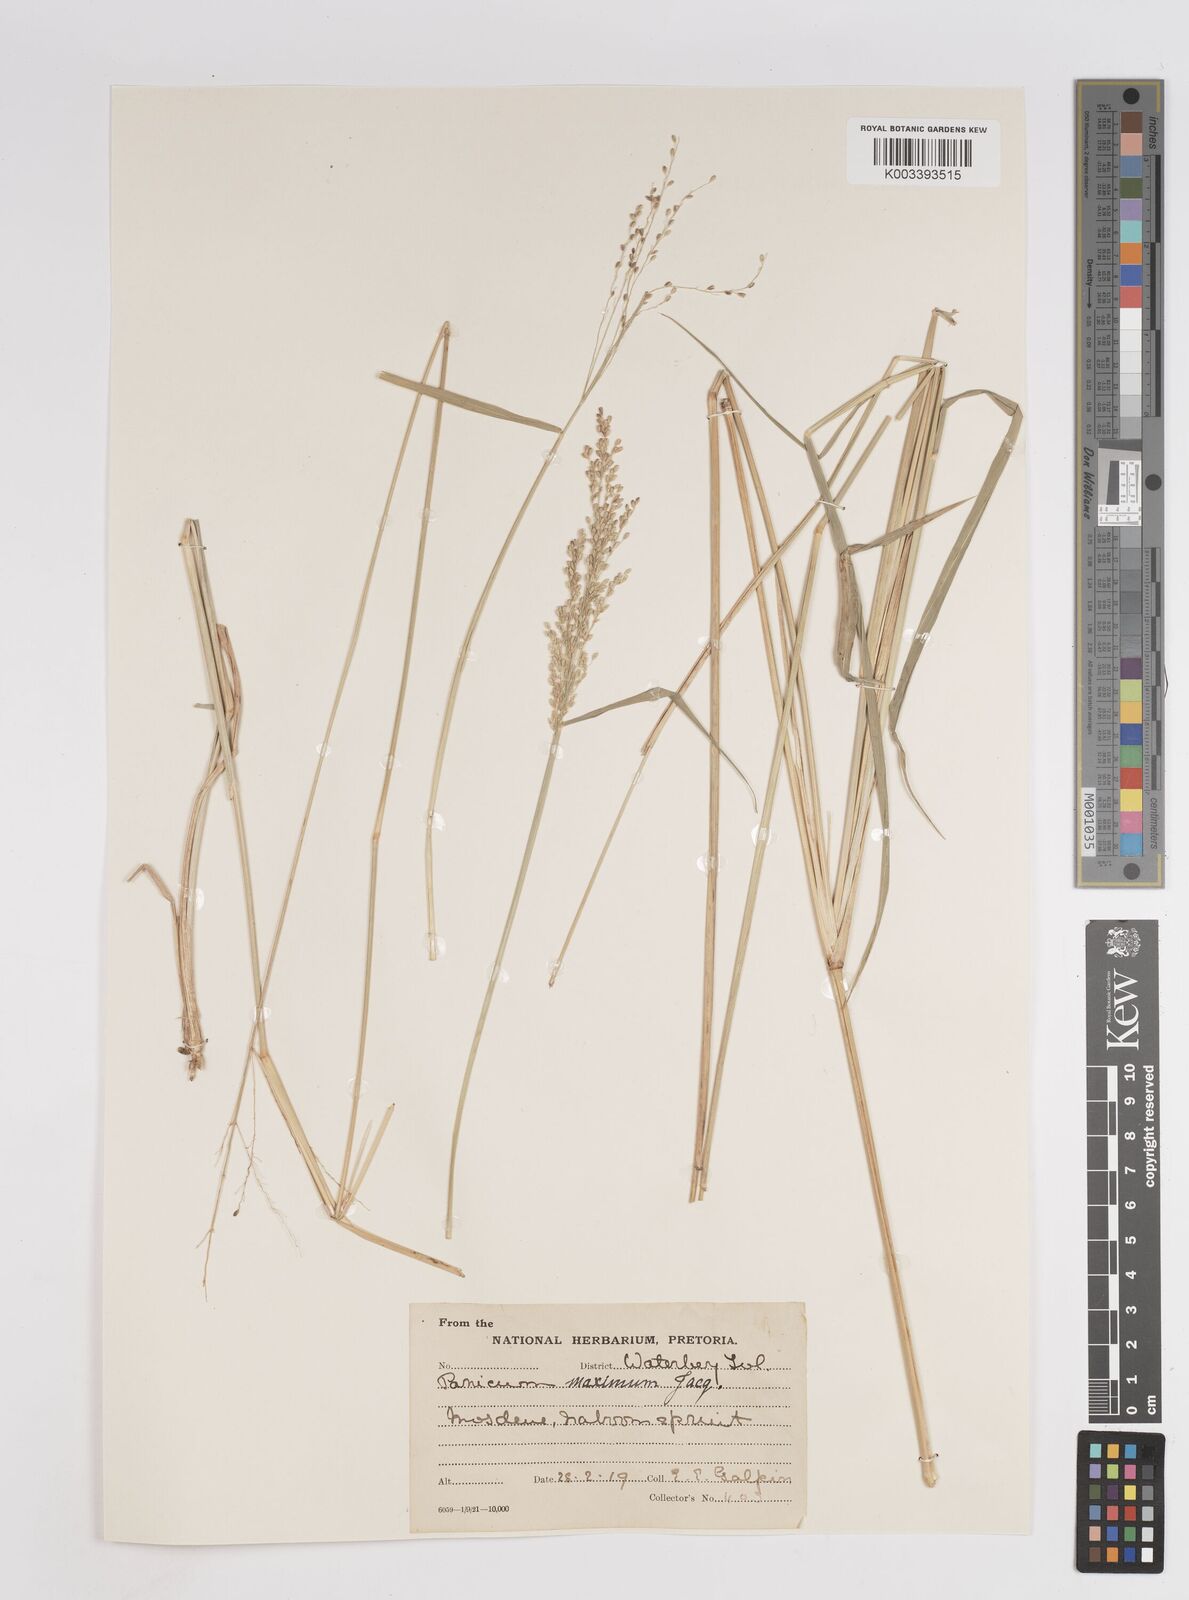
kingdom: Plantae
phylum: Tracheophyta
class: Liliopsida
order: Poales
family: Poaceae
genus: Megathyrsus
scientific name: Megathyrsus maximus
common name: Guineagrass
